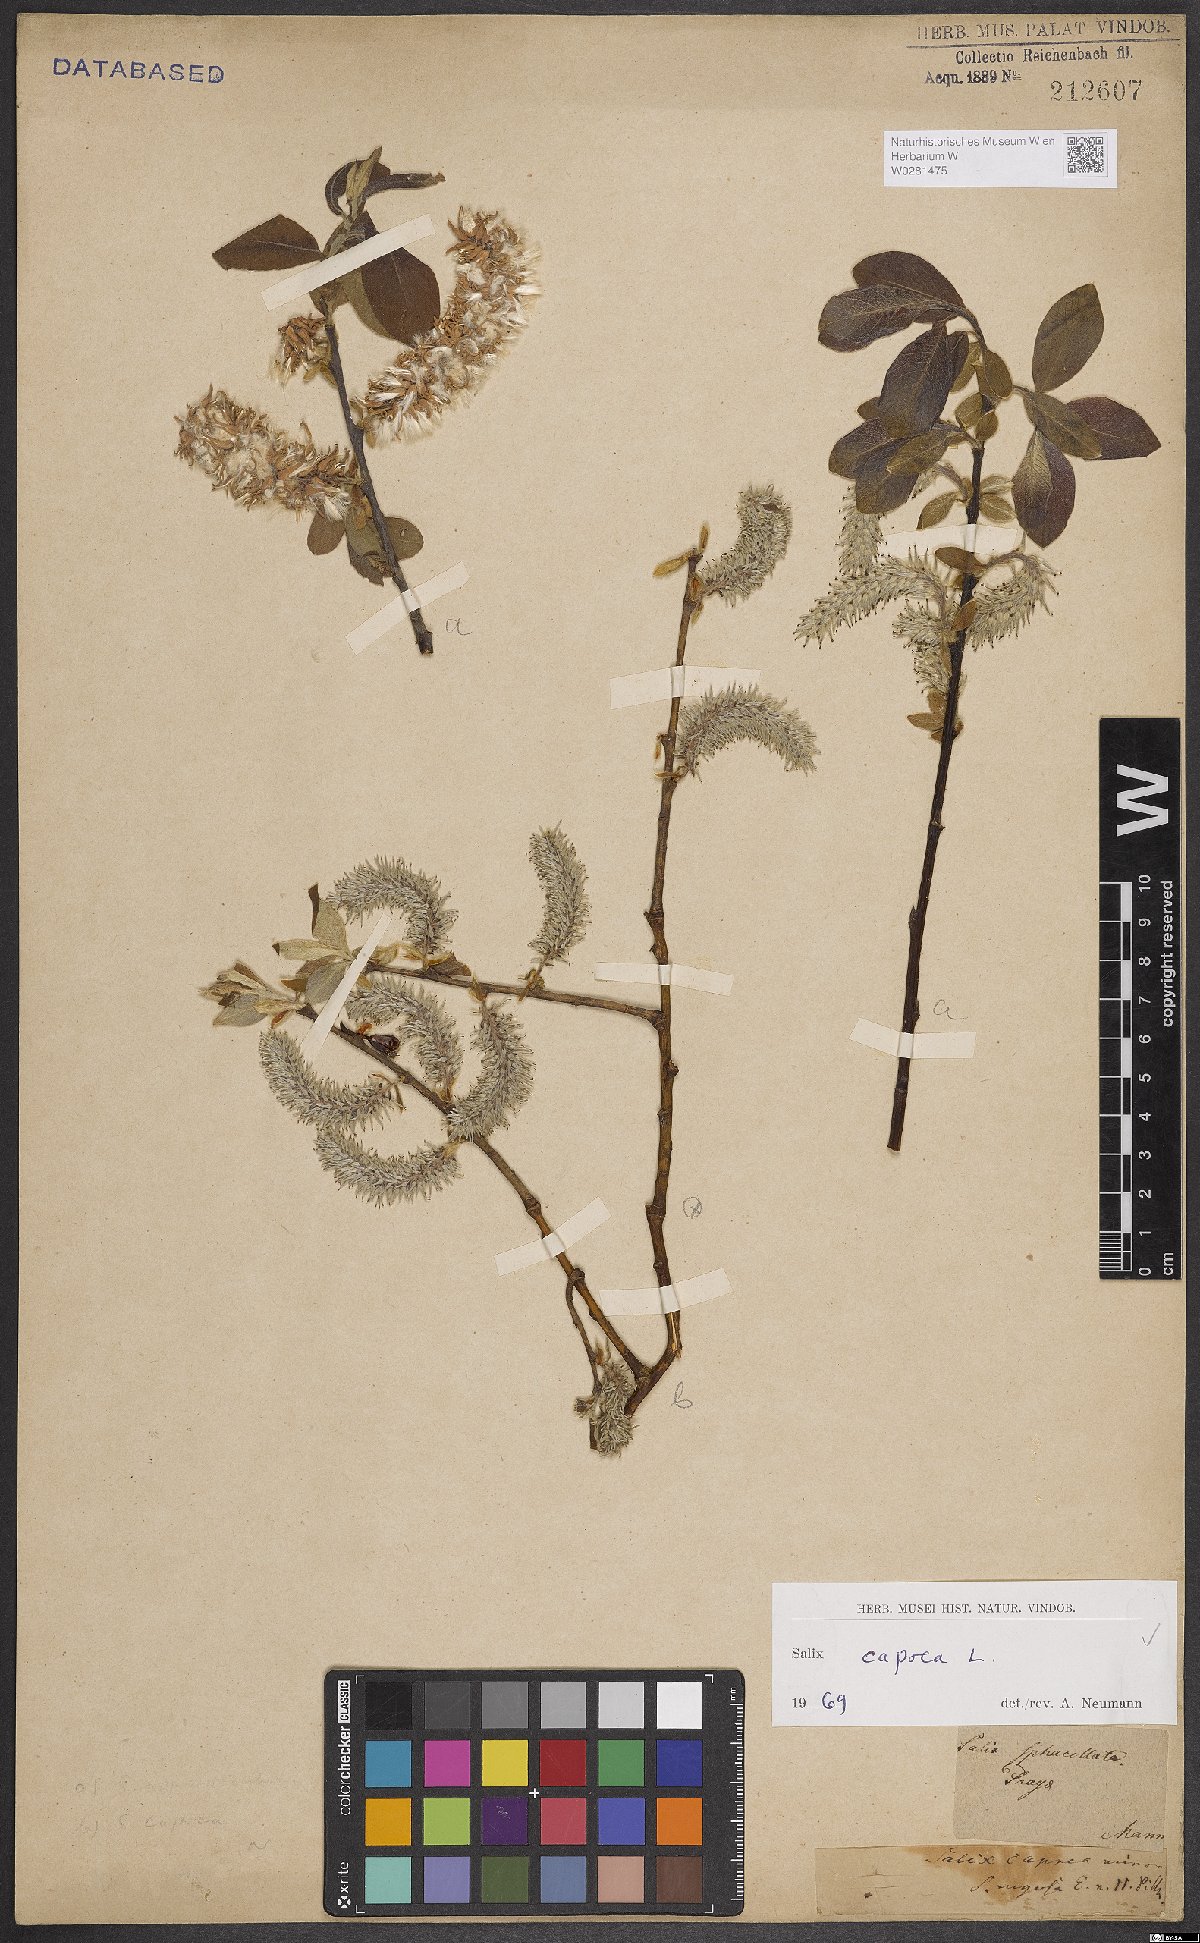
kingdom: Plantae
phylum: Tracheophyta
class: Magnoliopsida
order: Malpighiales
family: Salicaceae
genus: Salix
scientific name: Salix caprea
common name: Goat willow
